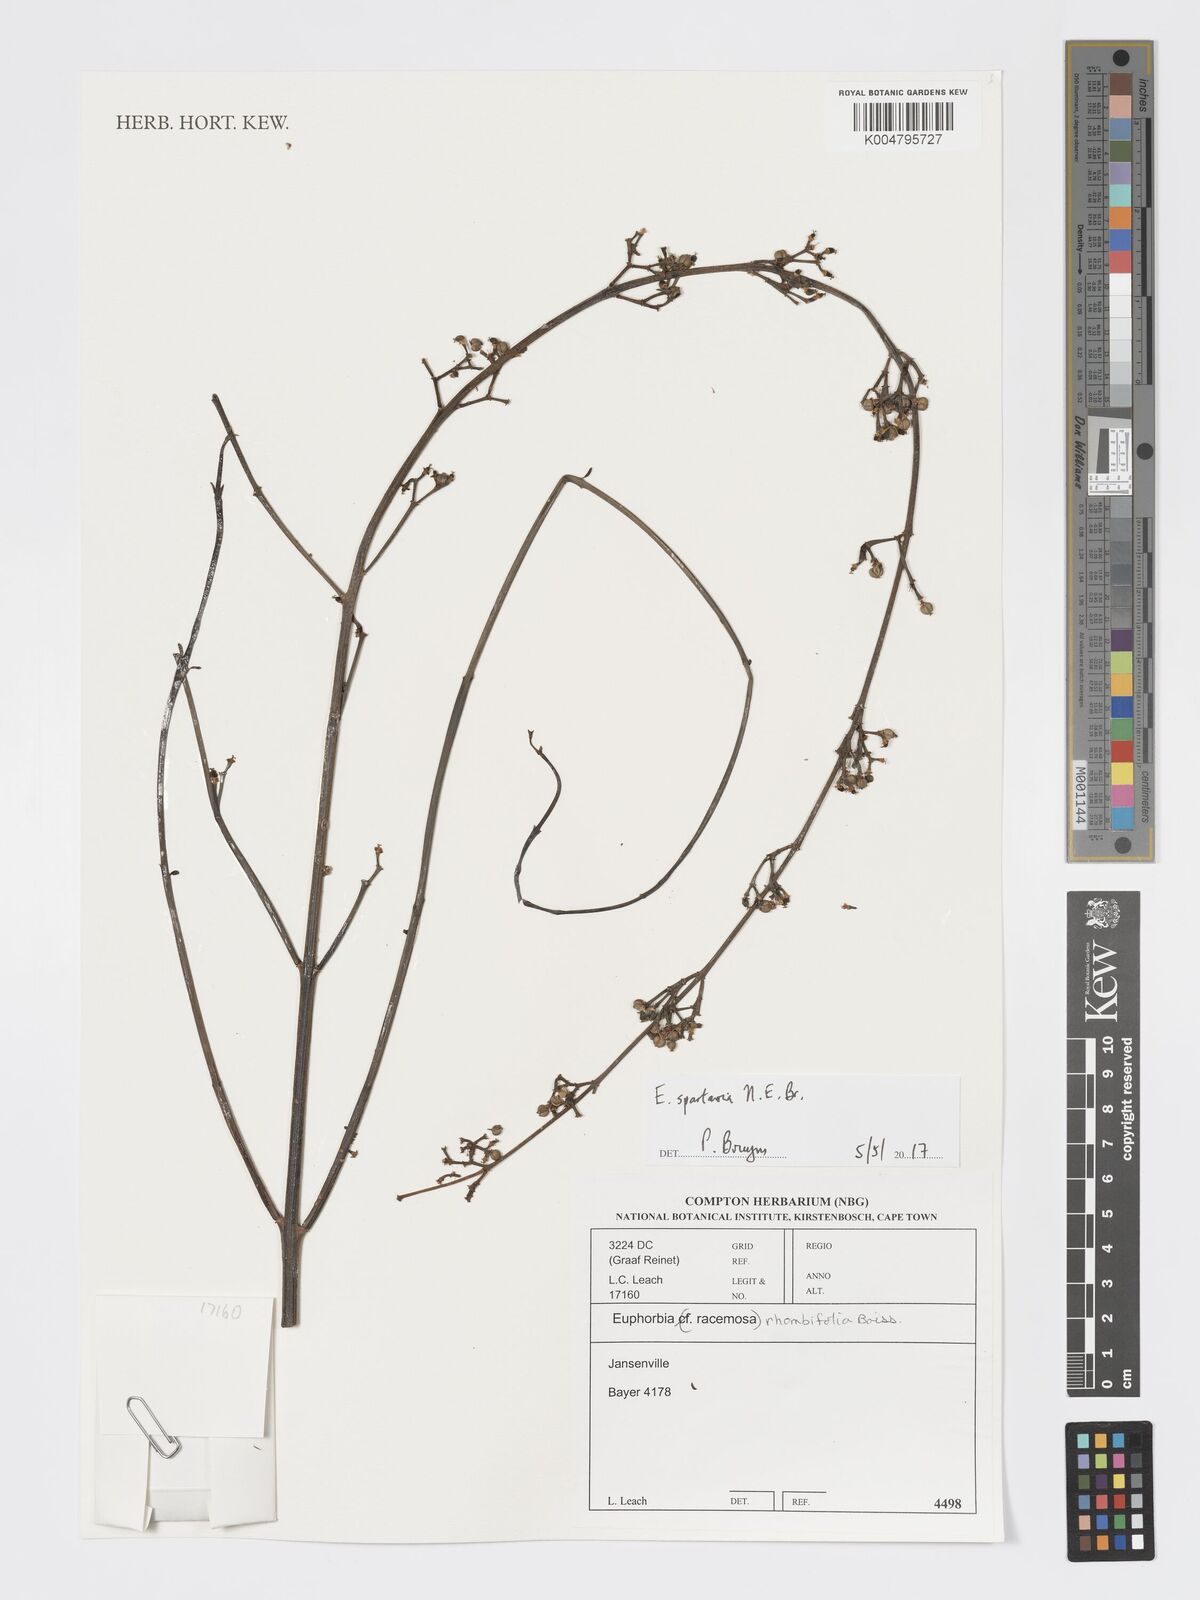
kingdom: Plantae
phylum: Tracheophyta
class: Magnoliopsida
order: Malpighiales
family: Euphorbiaceae
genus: Euphorbia
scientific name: Euphorbia spartaria
